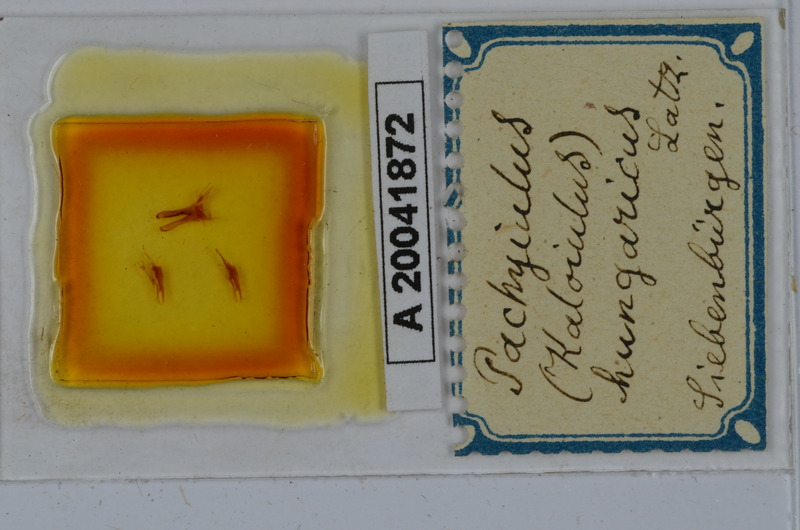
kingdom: Animalia
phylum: Arthropoda
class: Diplopoda
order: Julida
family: Julidae
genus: Pachyiulus
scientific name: Pachyiulus hungaricus
